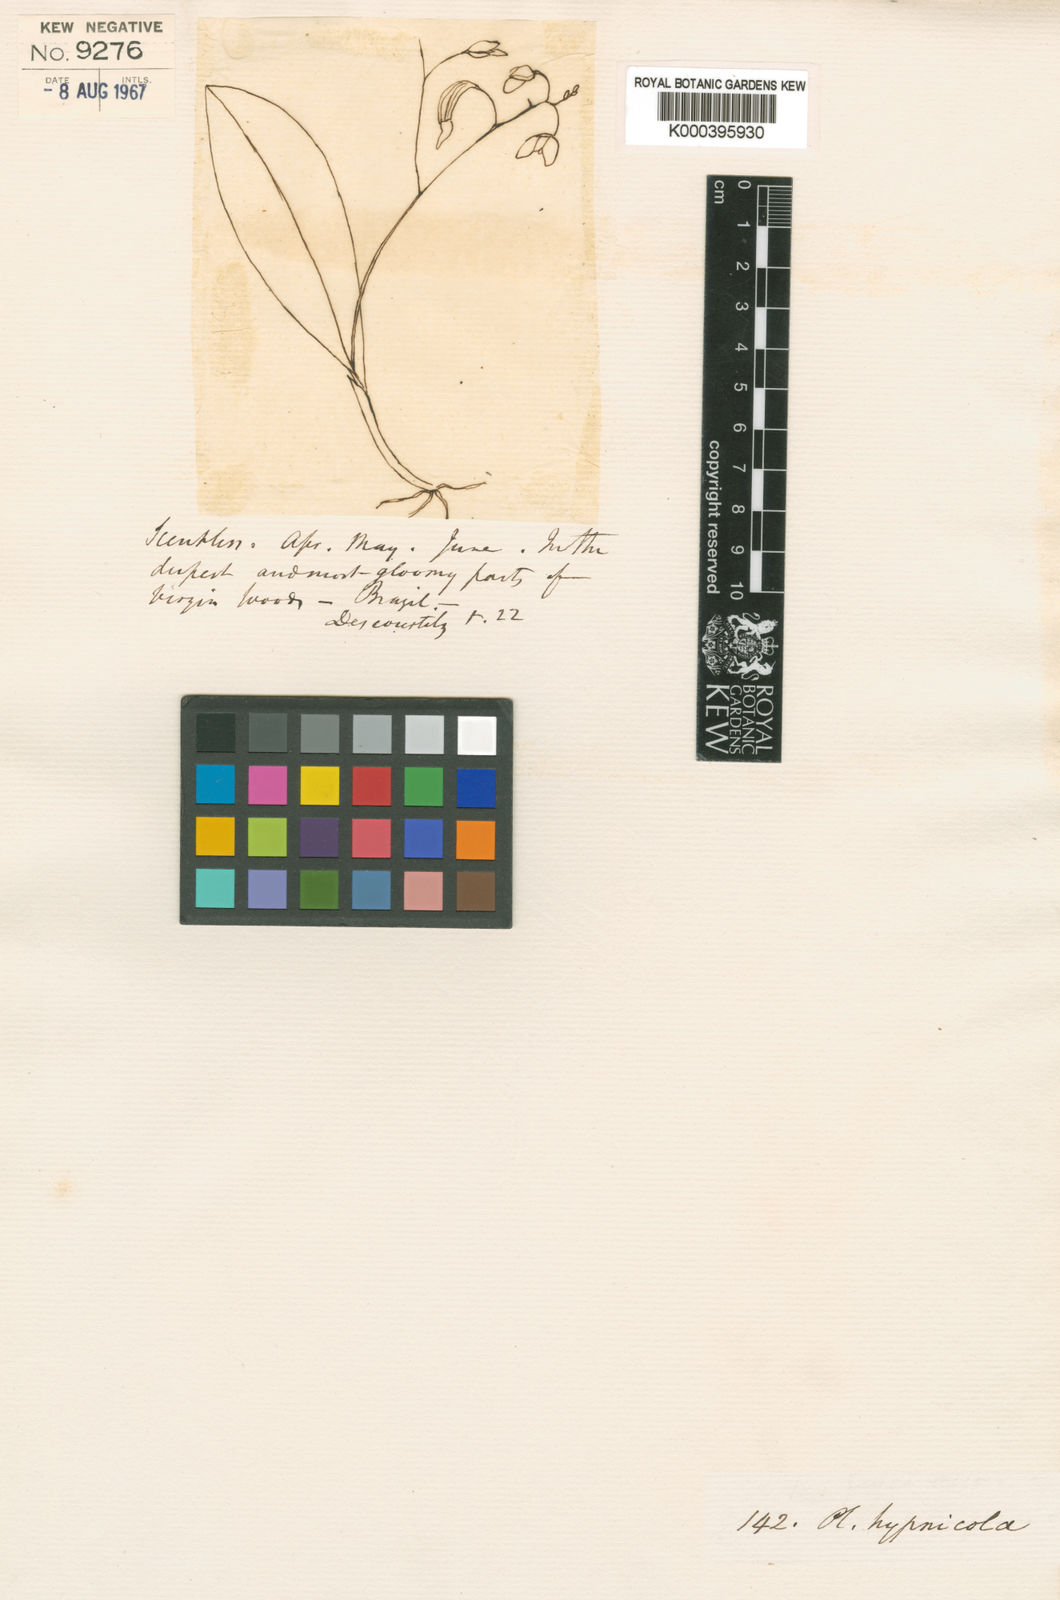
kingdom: Plantae
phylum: Tracheophyta
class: Liliopsida
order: Asparagales
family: Orchidaceae
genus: Pabstiella
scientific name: Pabstiella fusca
